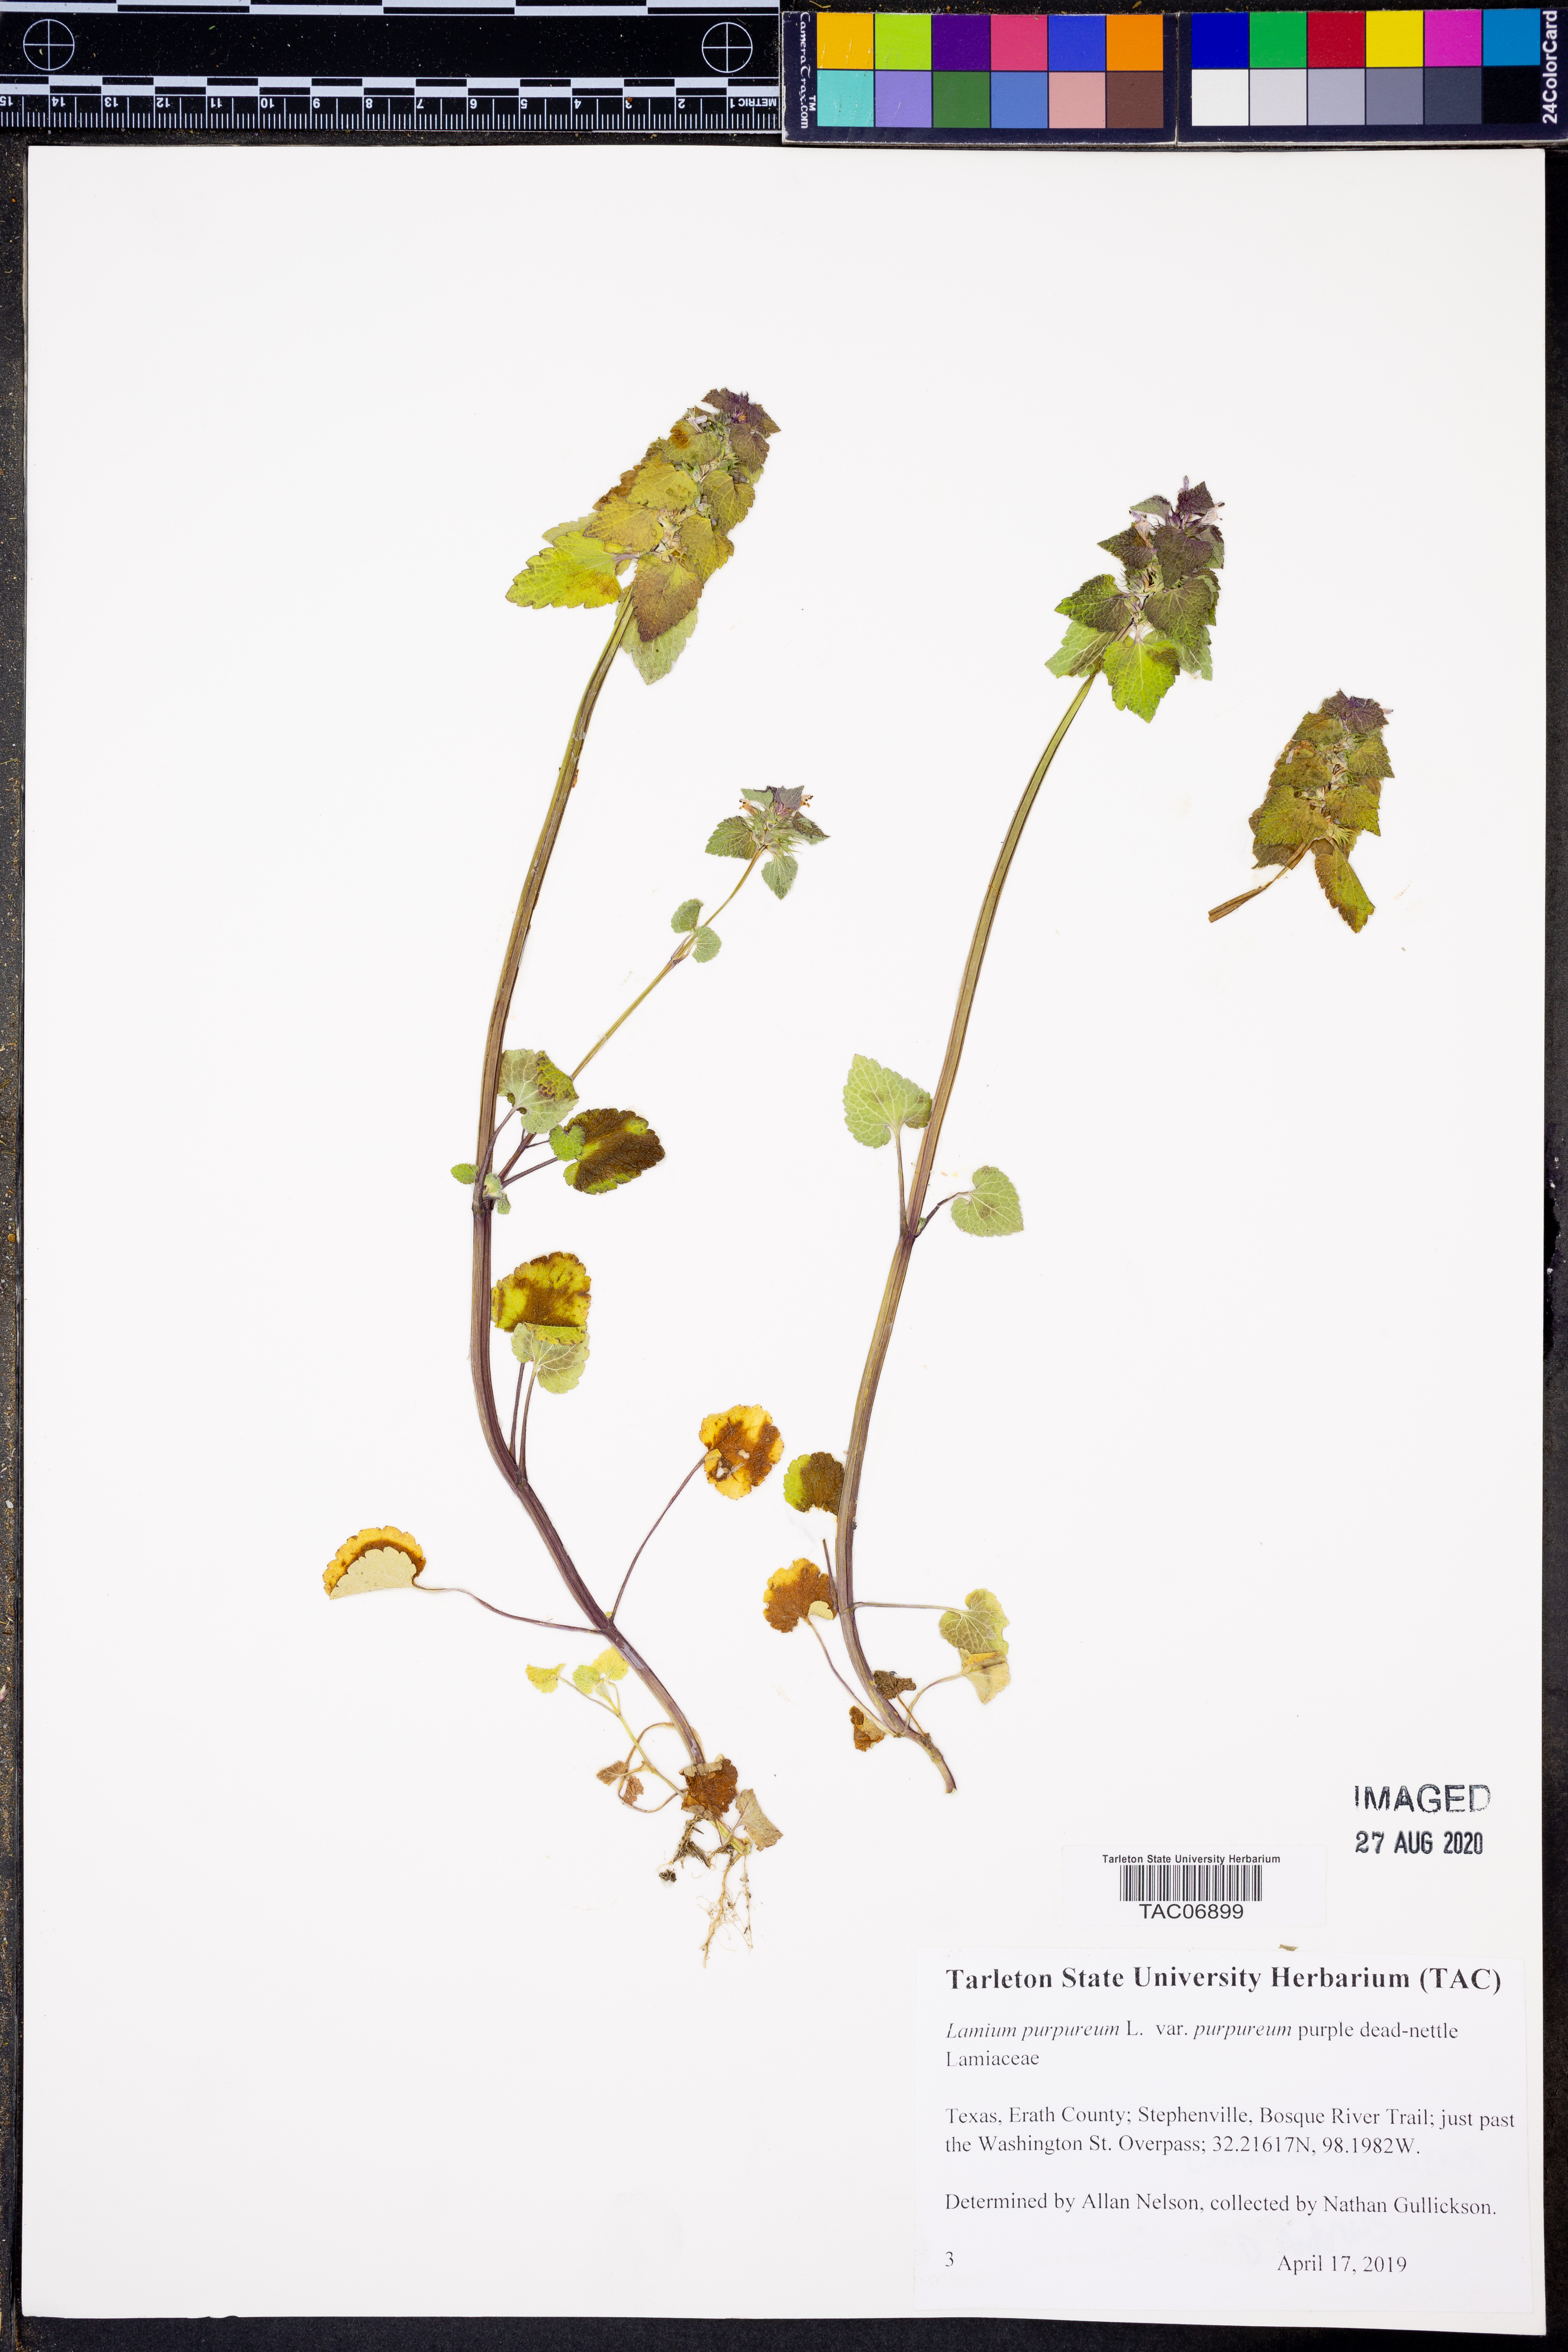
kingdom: Plantae
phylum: Tracheophyta
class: Magnoliopsida
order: Lamiales
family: Lamiaceae
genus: Lamium
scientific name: Lamium purpureum
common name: Red dead-nettle
